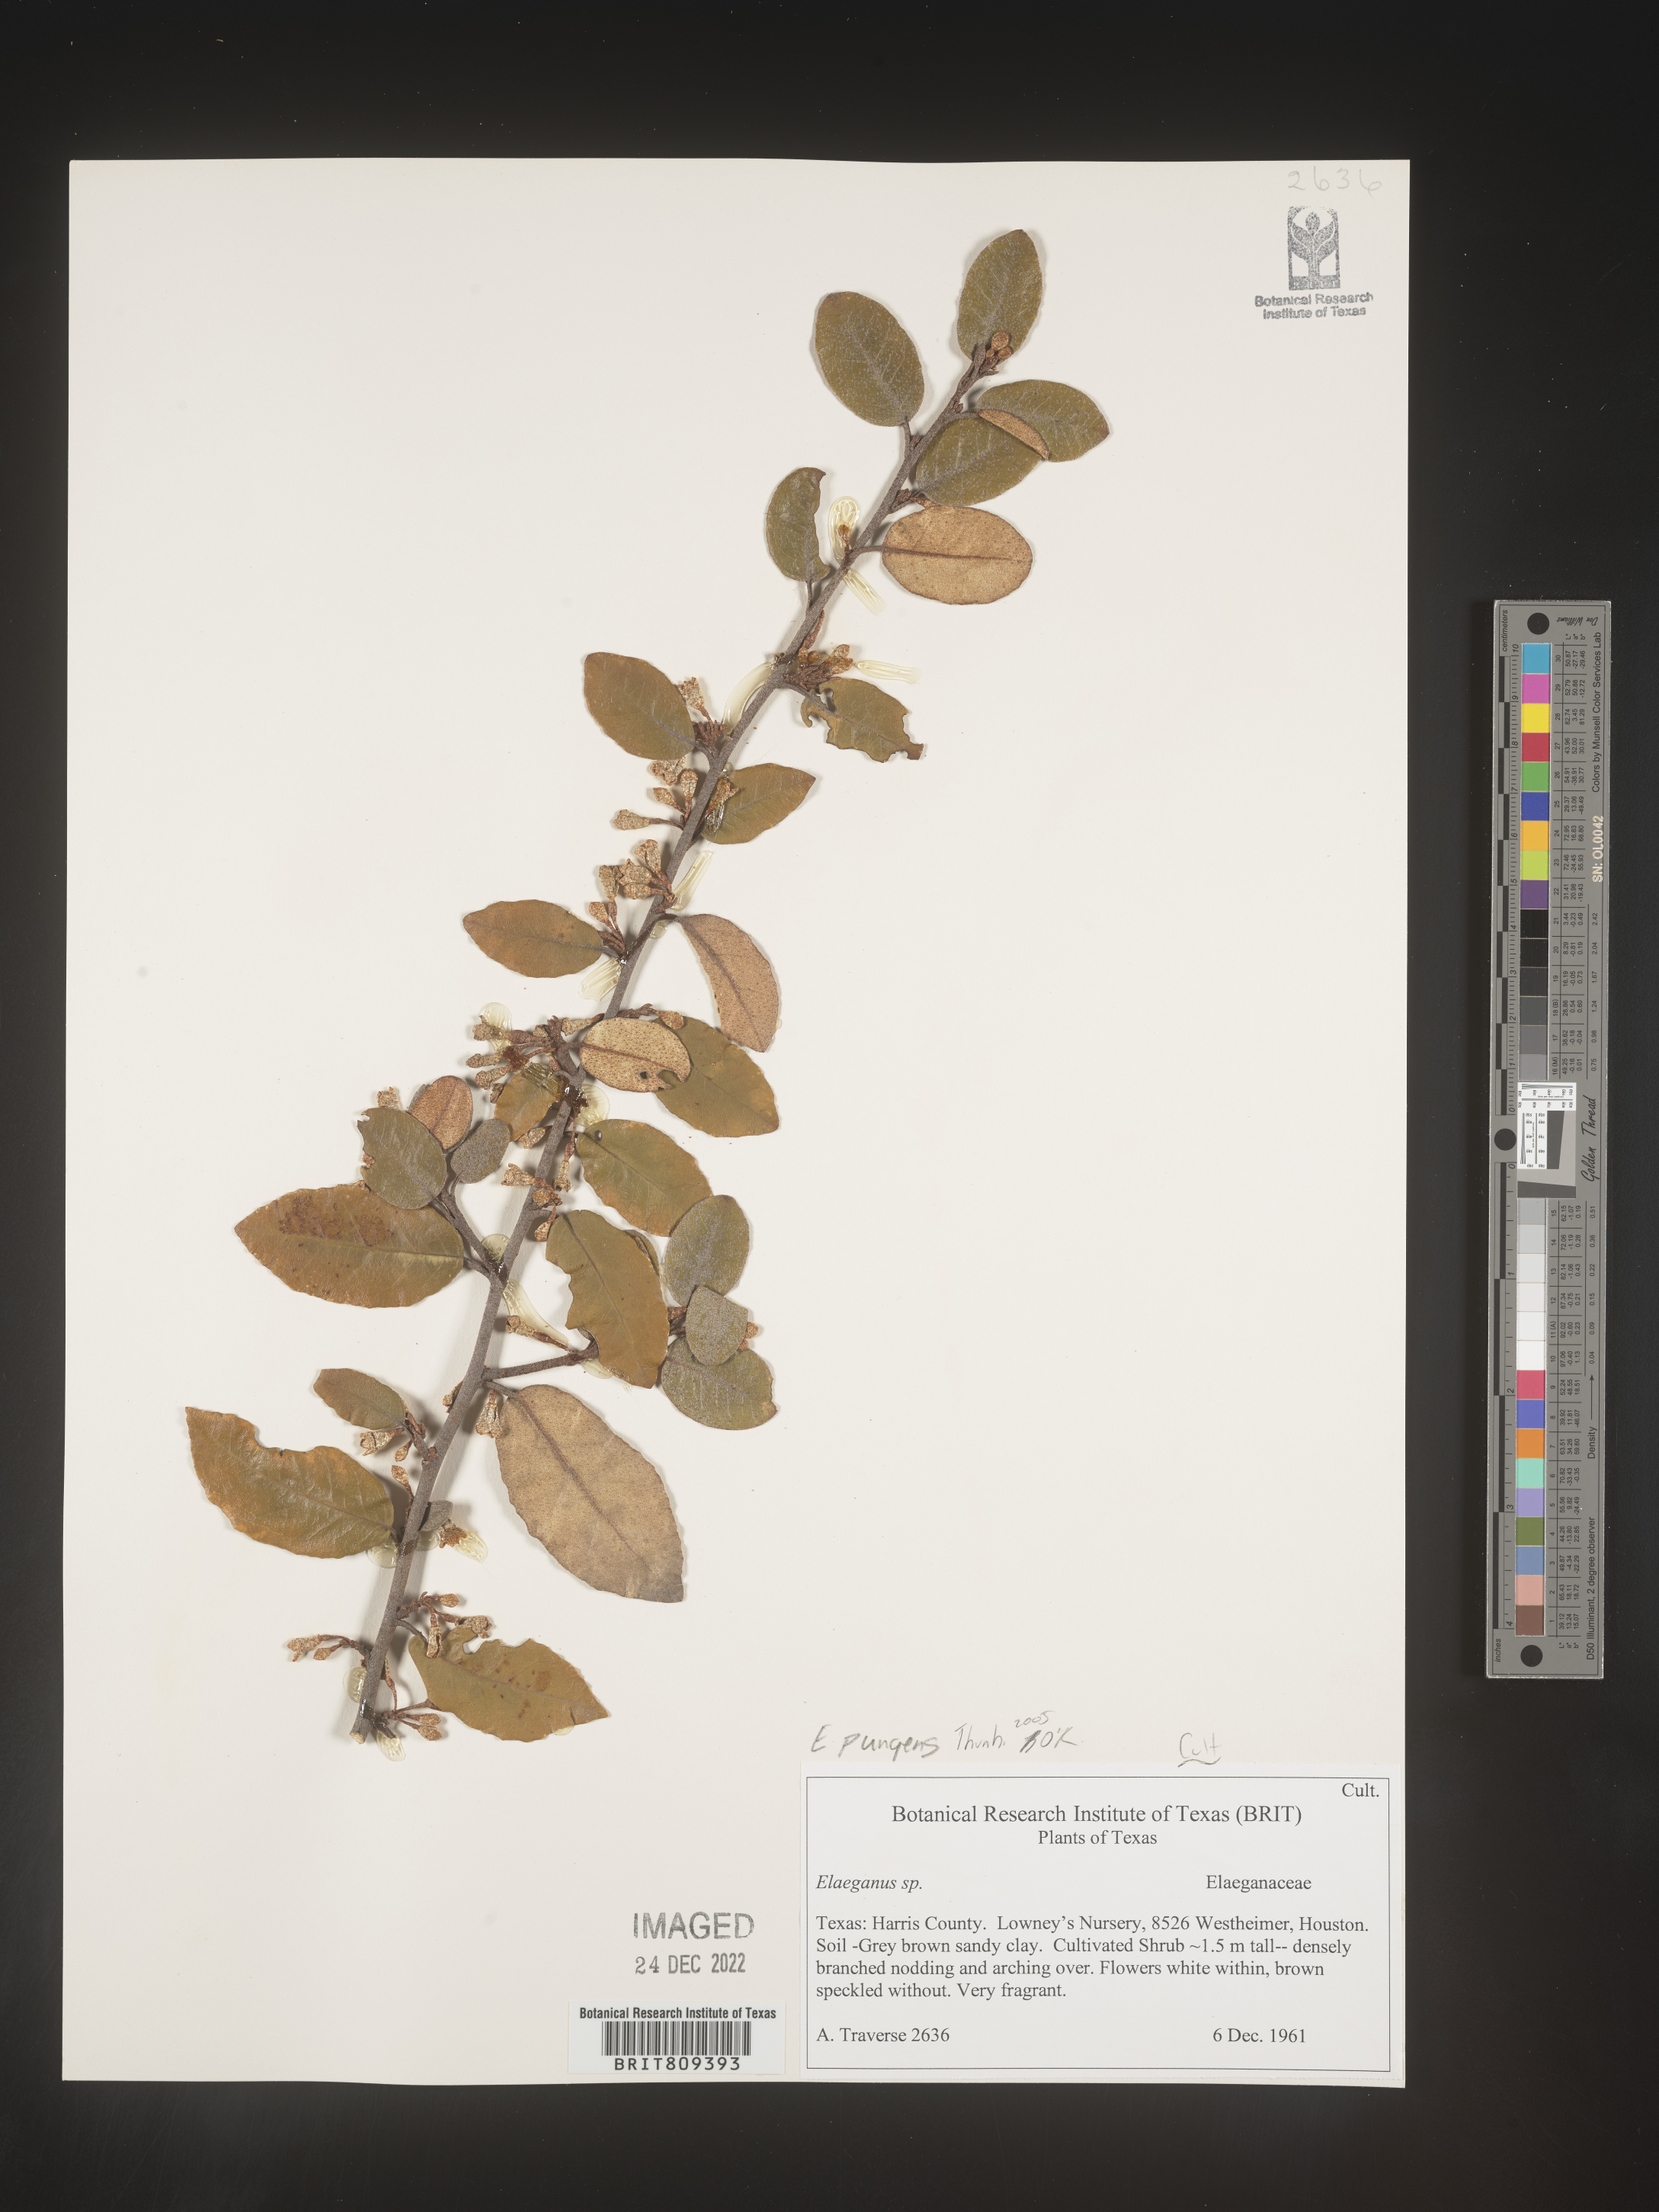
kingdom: Plantae
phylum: Tracheophyta
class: Magnoliopsida
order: Rosales
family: Elaeagnaceae
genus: Elaeagnus
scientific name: Elaeagnus
